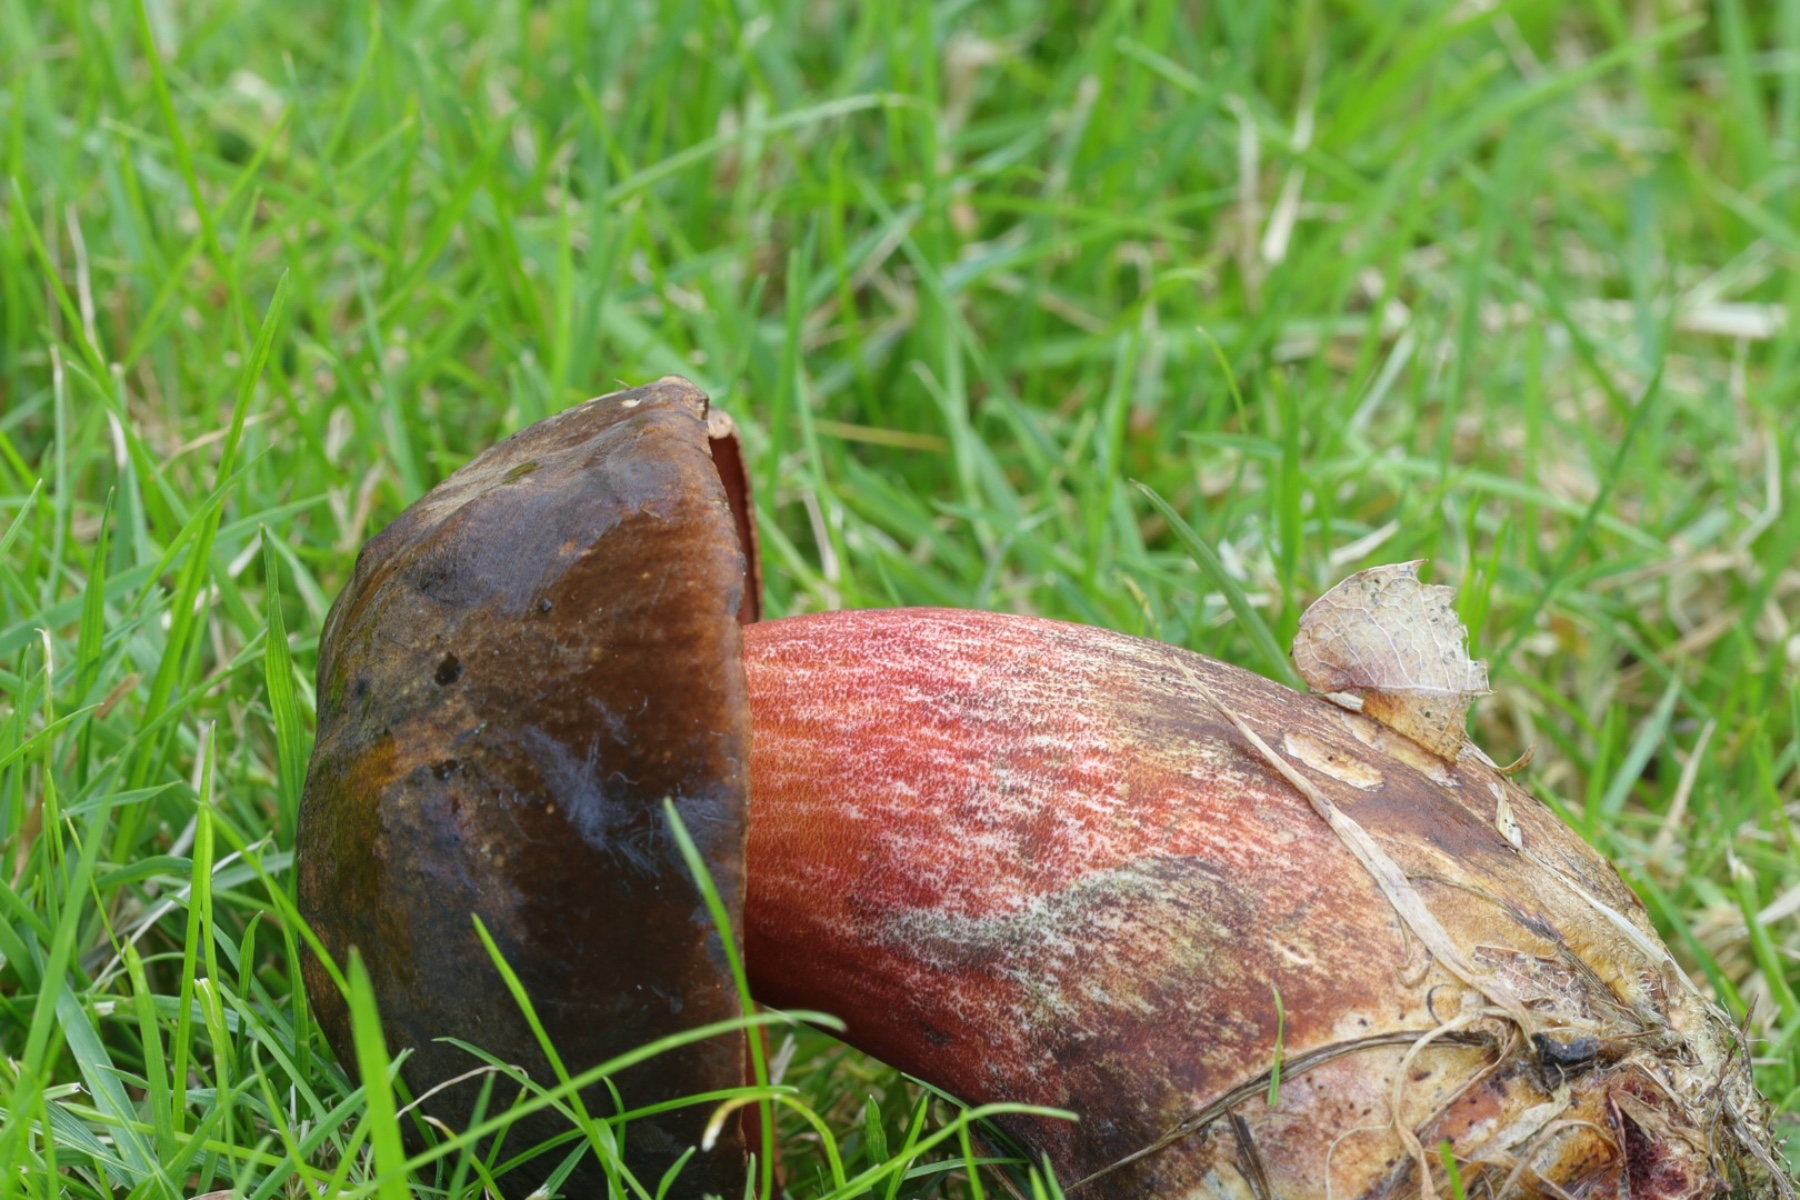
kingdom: Fungi
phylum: Basidiomycota
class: Agaricomycetes
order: Boletales
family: Boletaceae
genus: Neoboletus
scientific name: Neoboletus erythropus
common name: punktstokket indigorørhat
